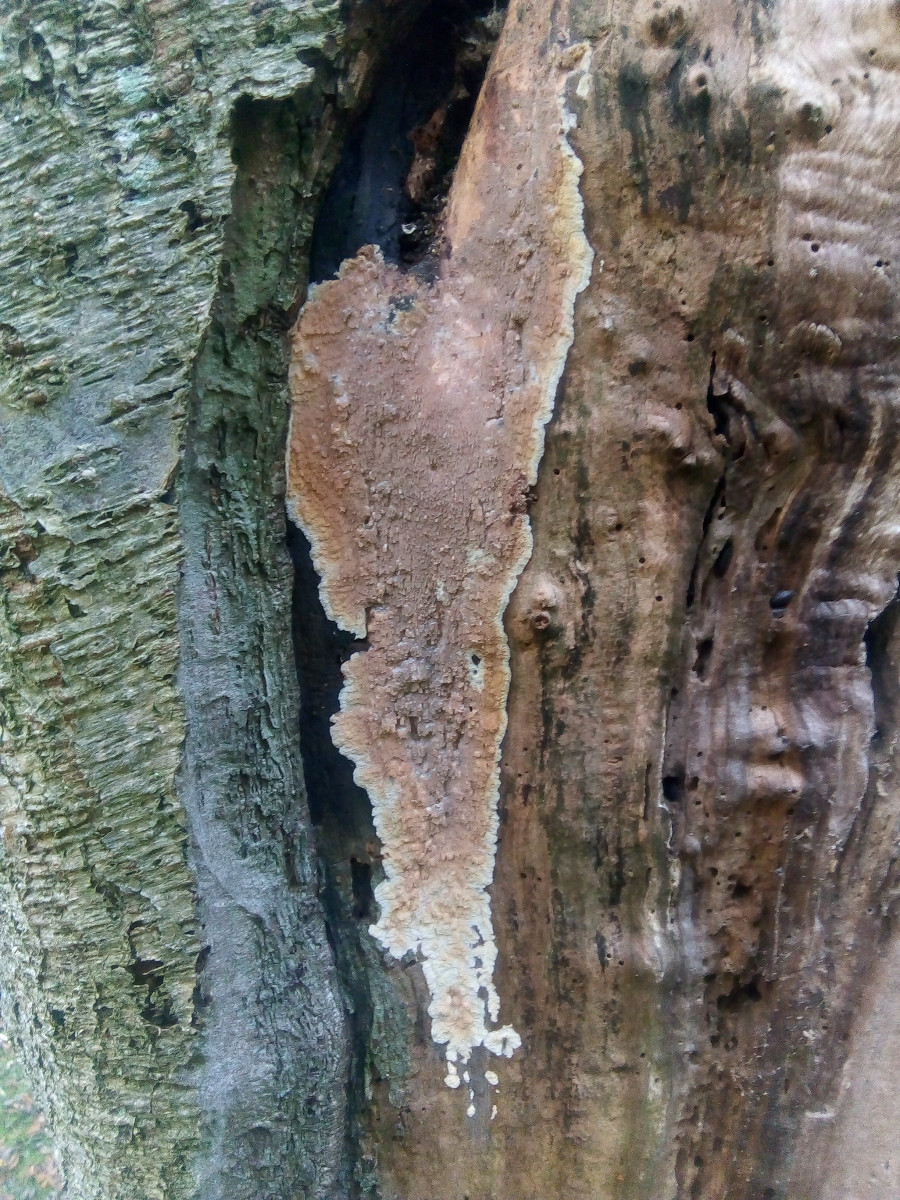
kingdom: Fungi
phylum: Basidiomycota
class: Agaricomycetes
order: Polyporales
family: Meruliaceae
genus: Phlebia
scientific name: Phlebia
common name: åresvamp
